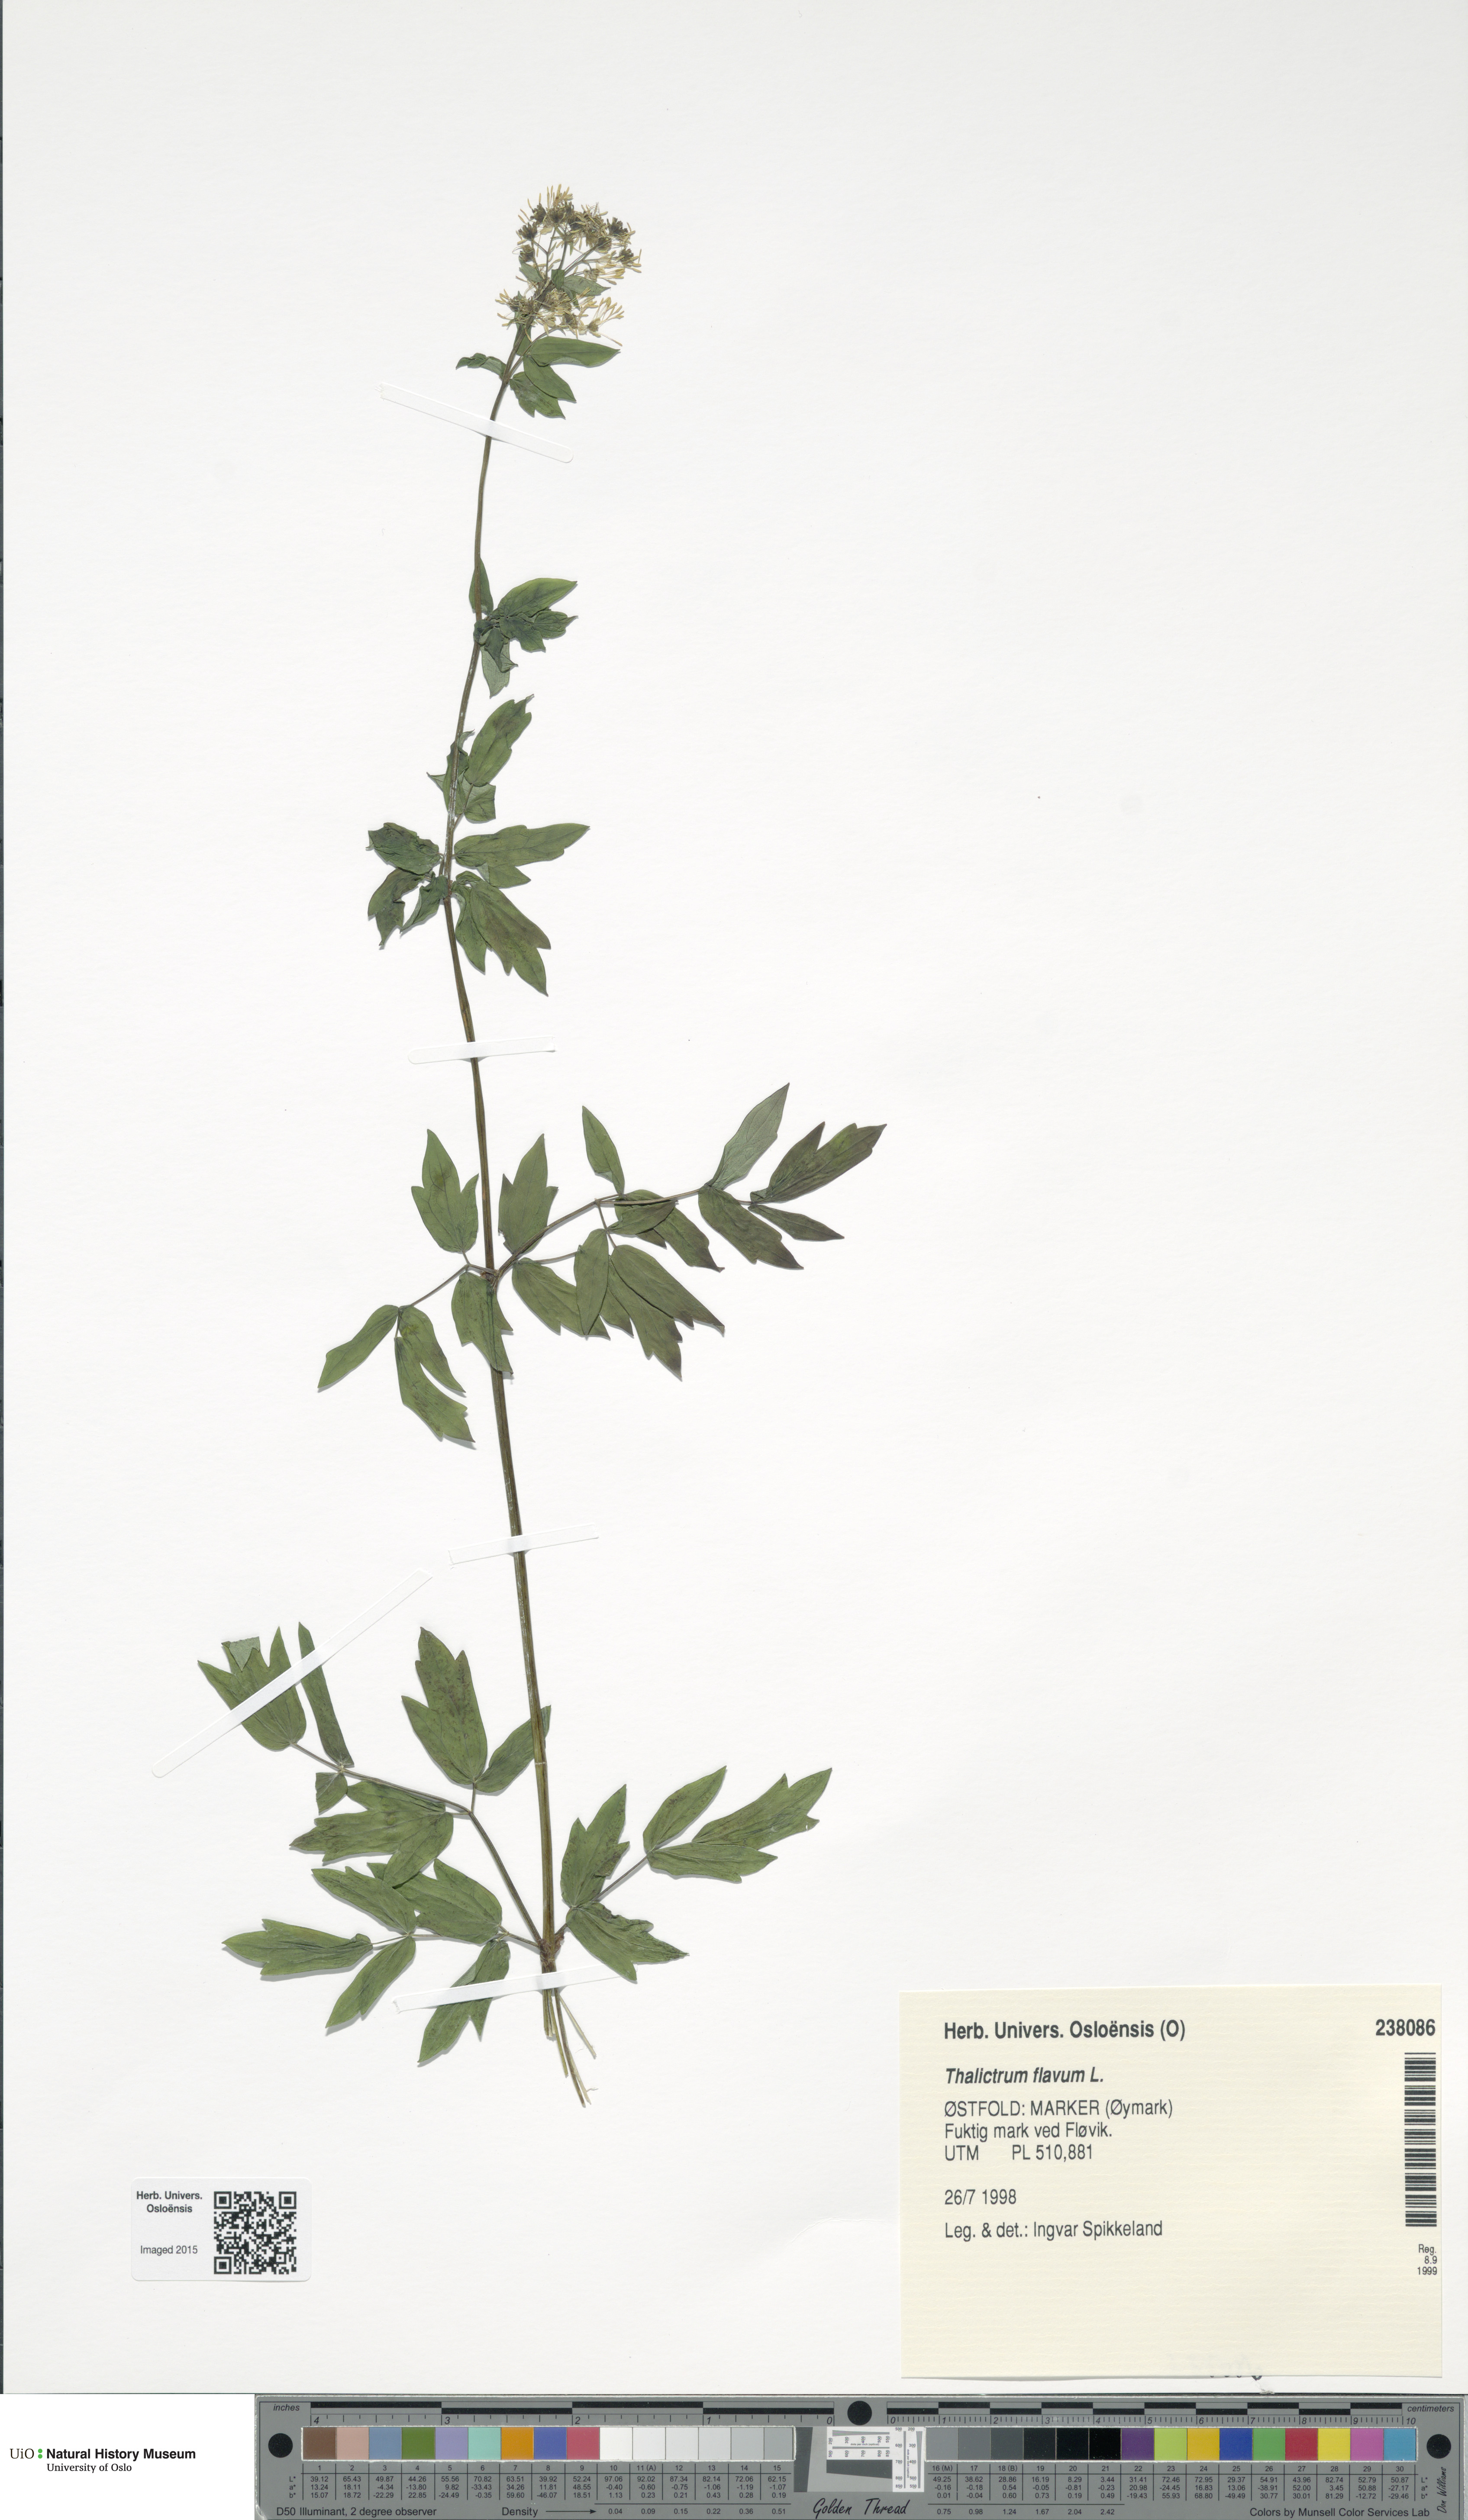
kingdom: Plantae
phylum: Tracheophyta
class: Magnoliopsida
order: Ranunculales
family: Ranunculaceae
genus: Thalictrum
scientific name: Thalictrum flavum
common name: Common meadow-rue
